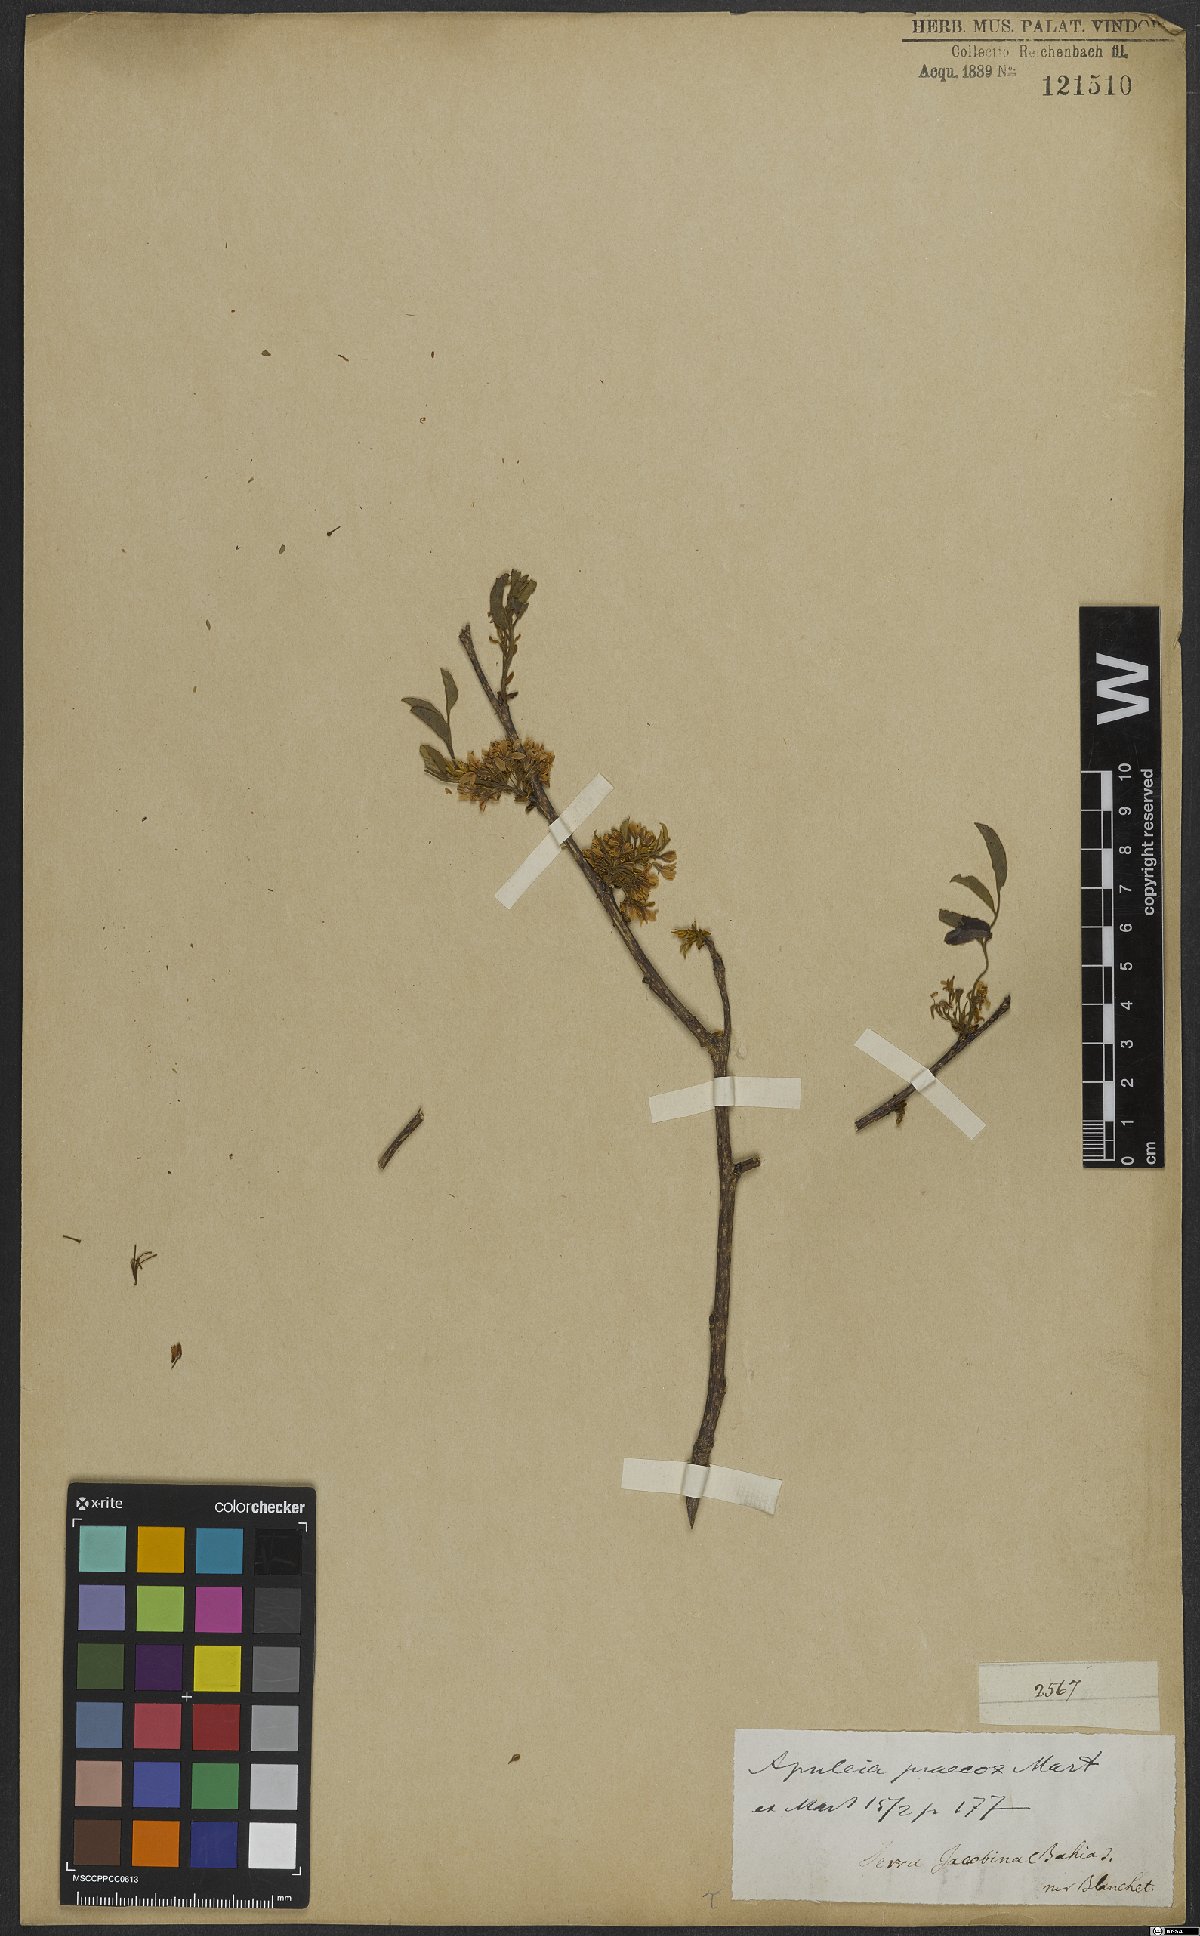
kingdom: Plantae
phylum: Tracheophyta
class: Magnoliopsida
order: Fabales
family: Fabaceae
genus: Apuleia
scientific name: Apuleia leiocarpa
